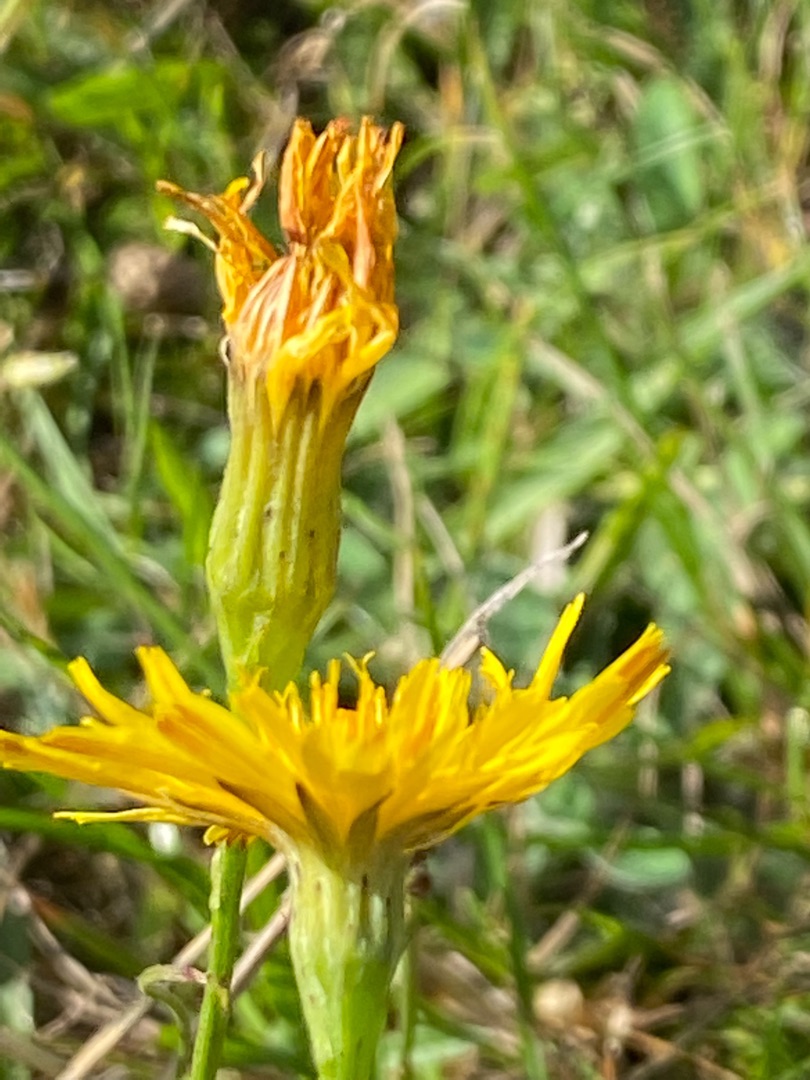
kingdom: Plantae
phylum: Tracheophyta
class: Magnoliopsida
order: Asterales
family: Asteraceae
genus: Scorzoneroides
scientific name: Scorzoneroides autumnalis
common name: Høst-borst
